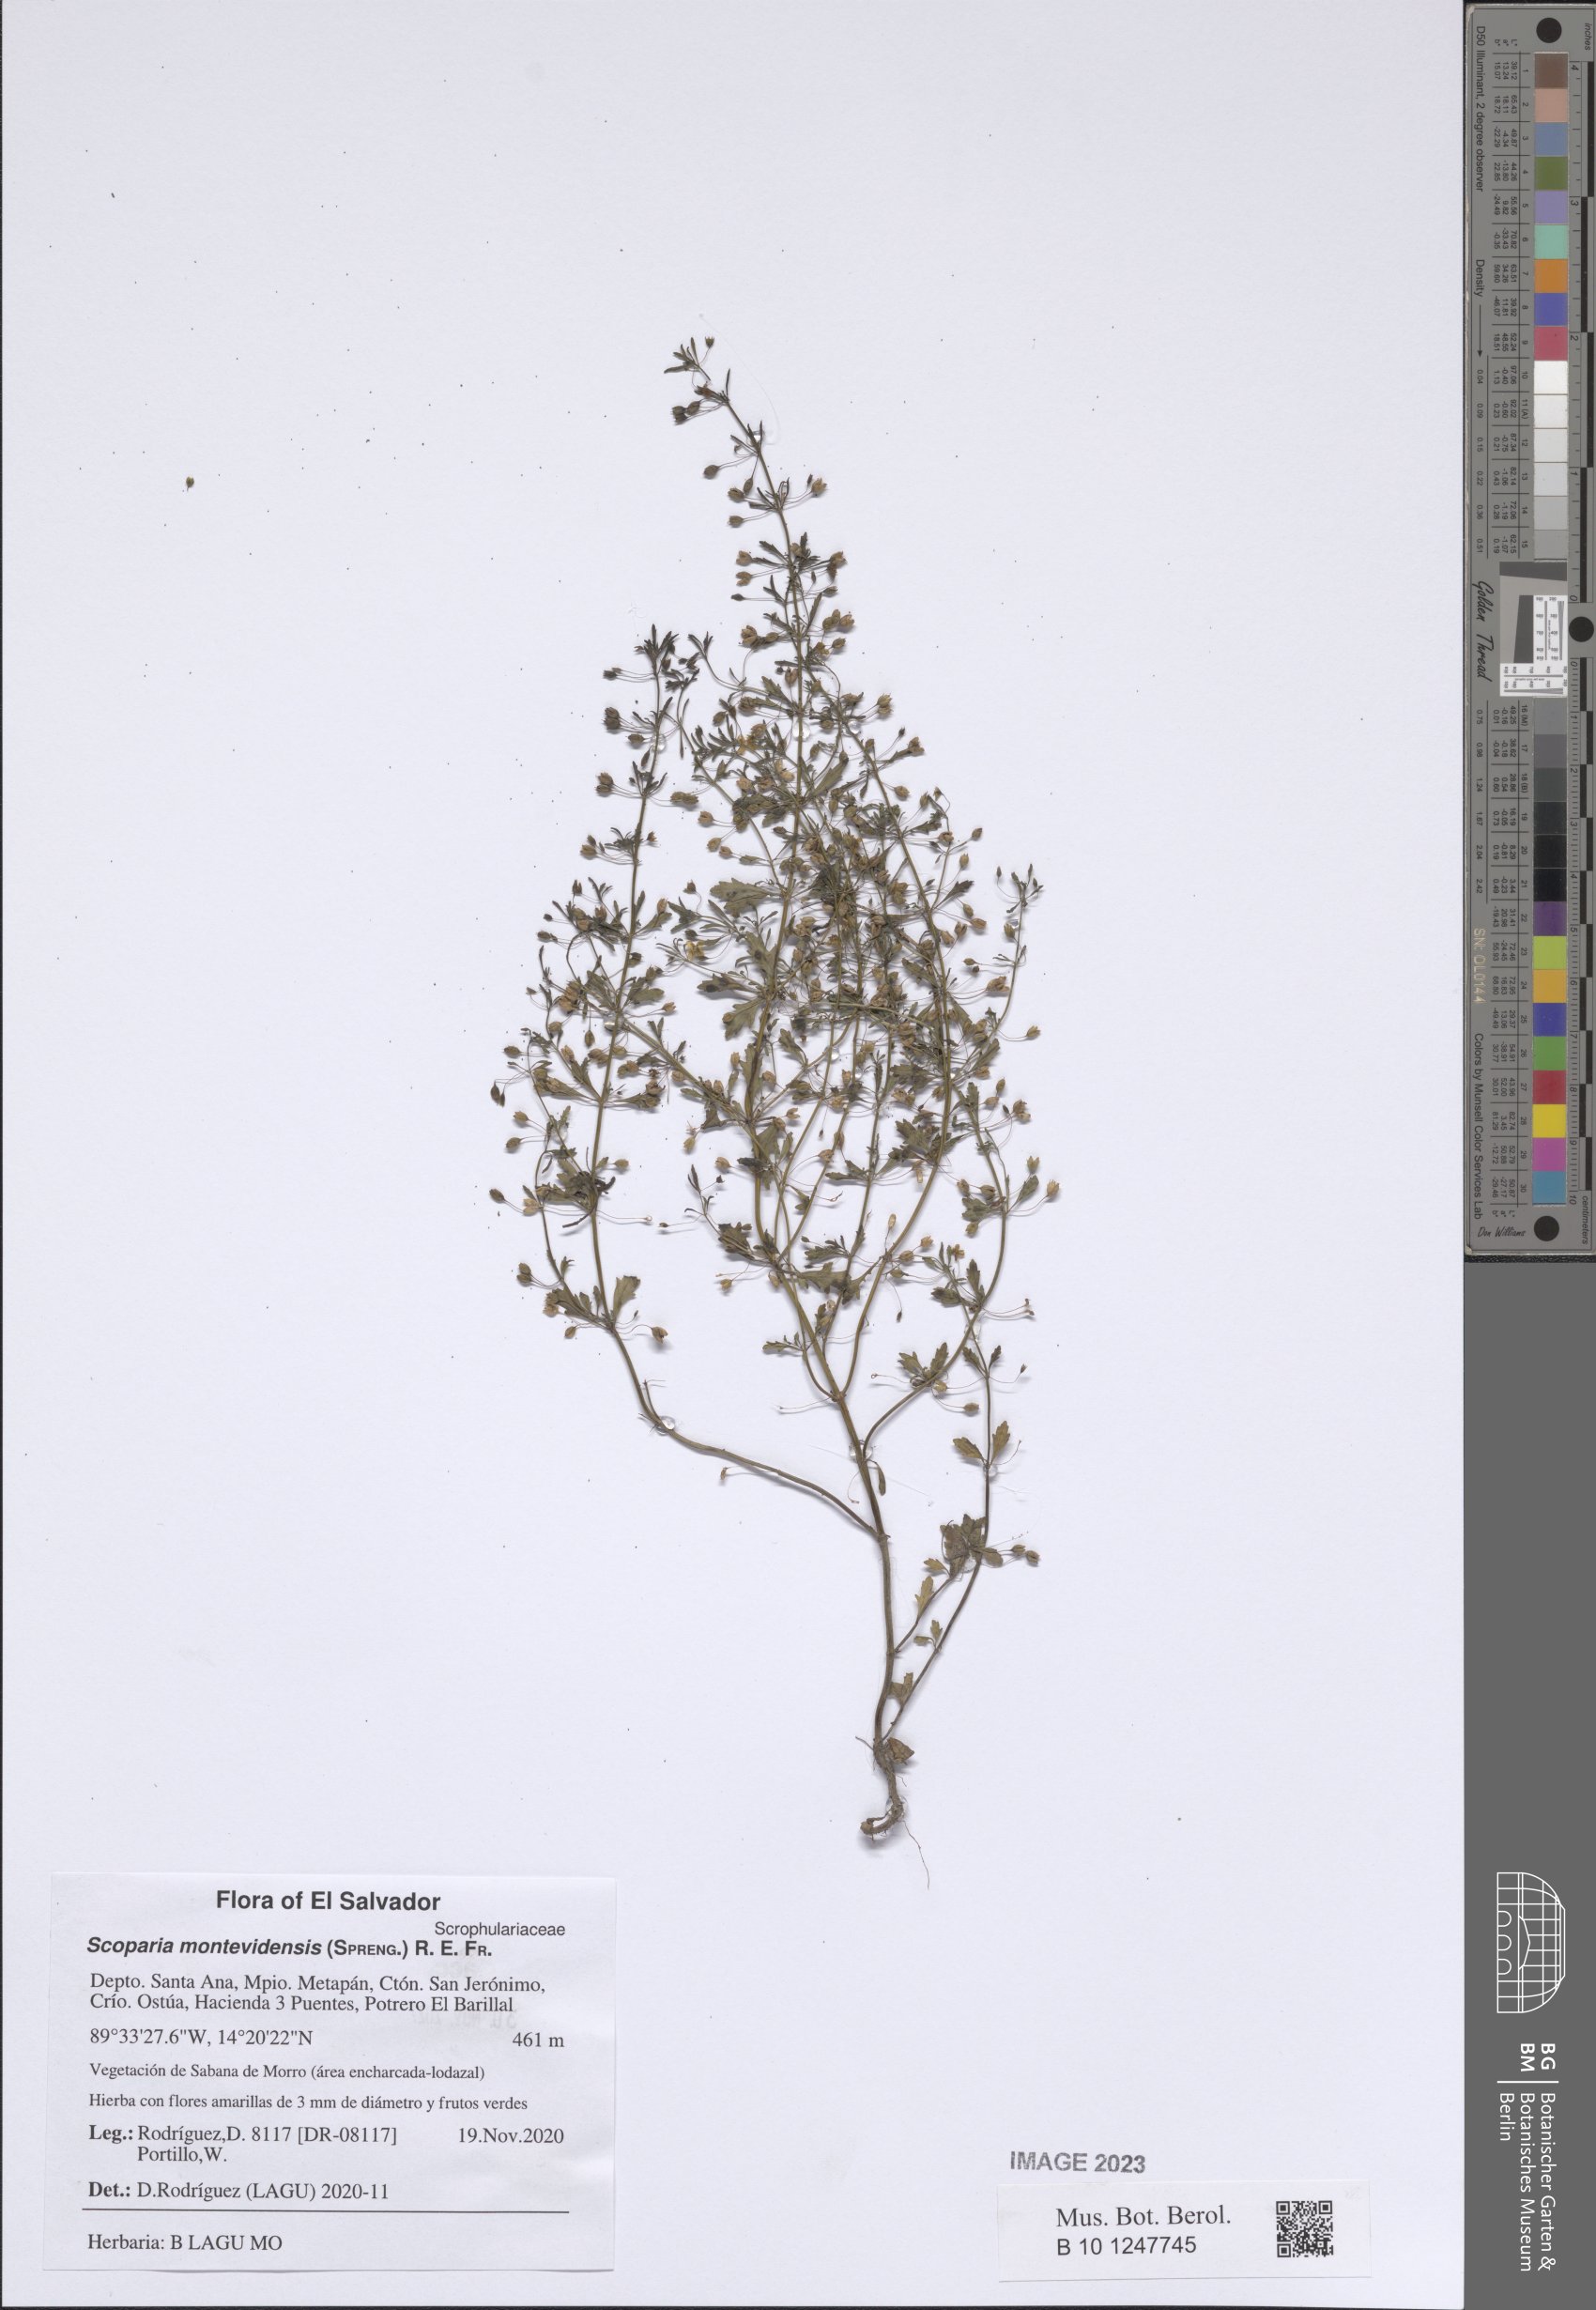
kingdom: Plantae
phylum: Tracheophyta
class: Magnoliopsida
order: Lamiales
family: Plantaginaceae
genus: Scoparia
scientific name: Scoparia montevidensis
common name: Broomwort
